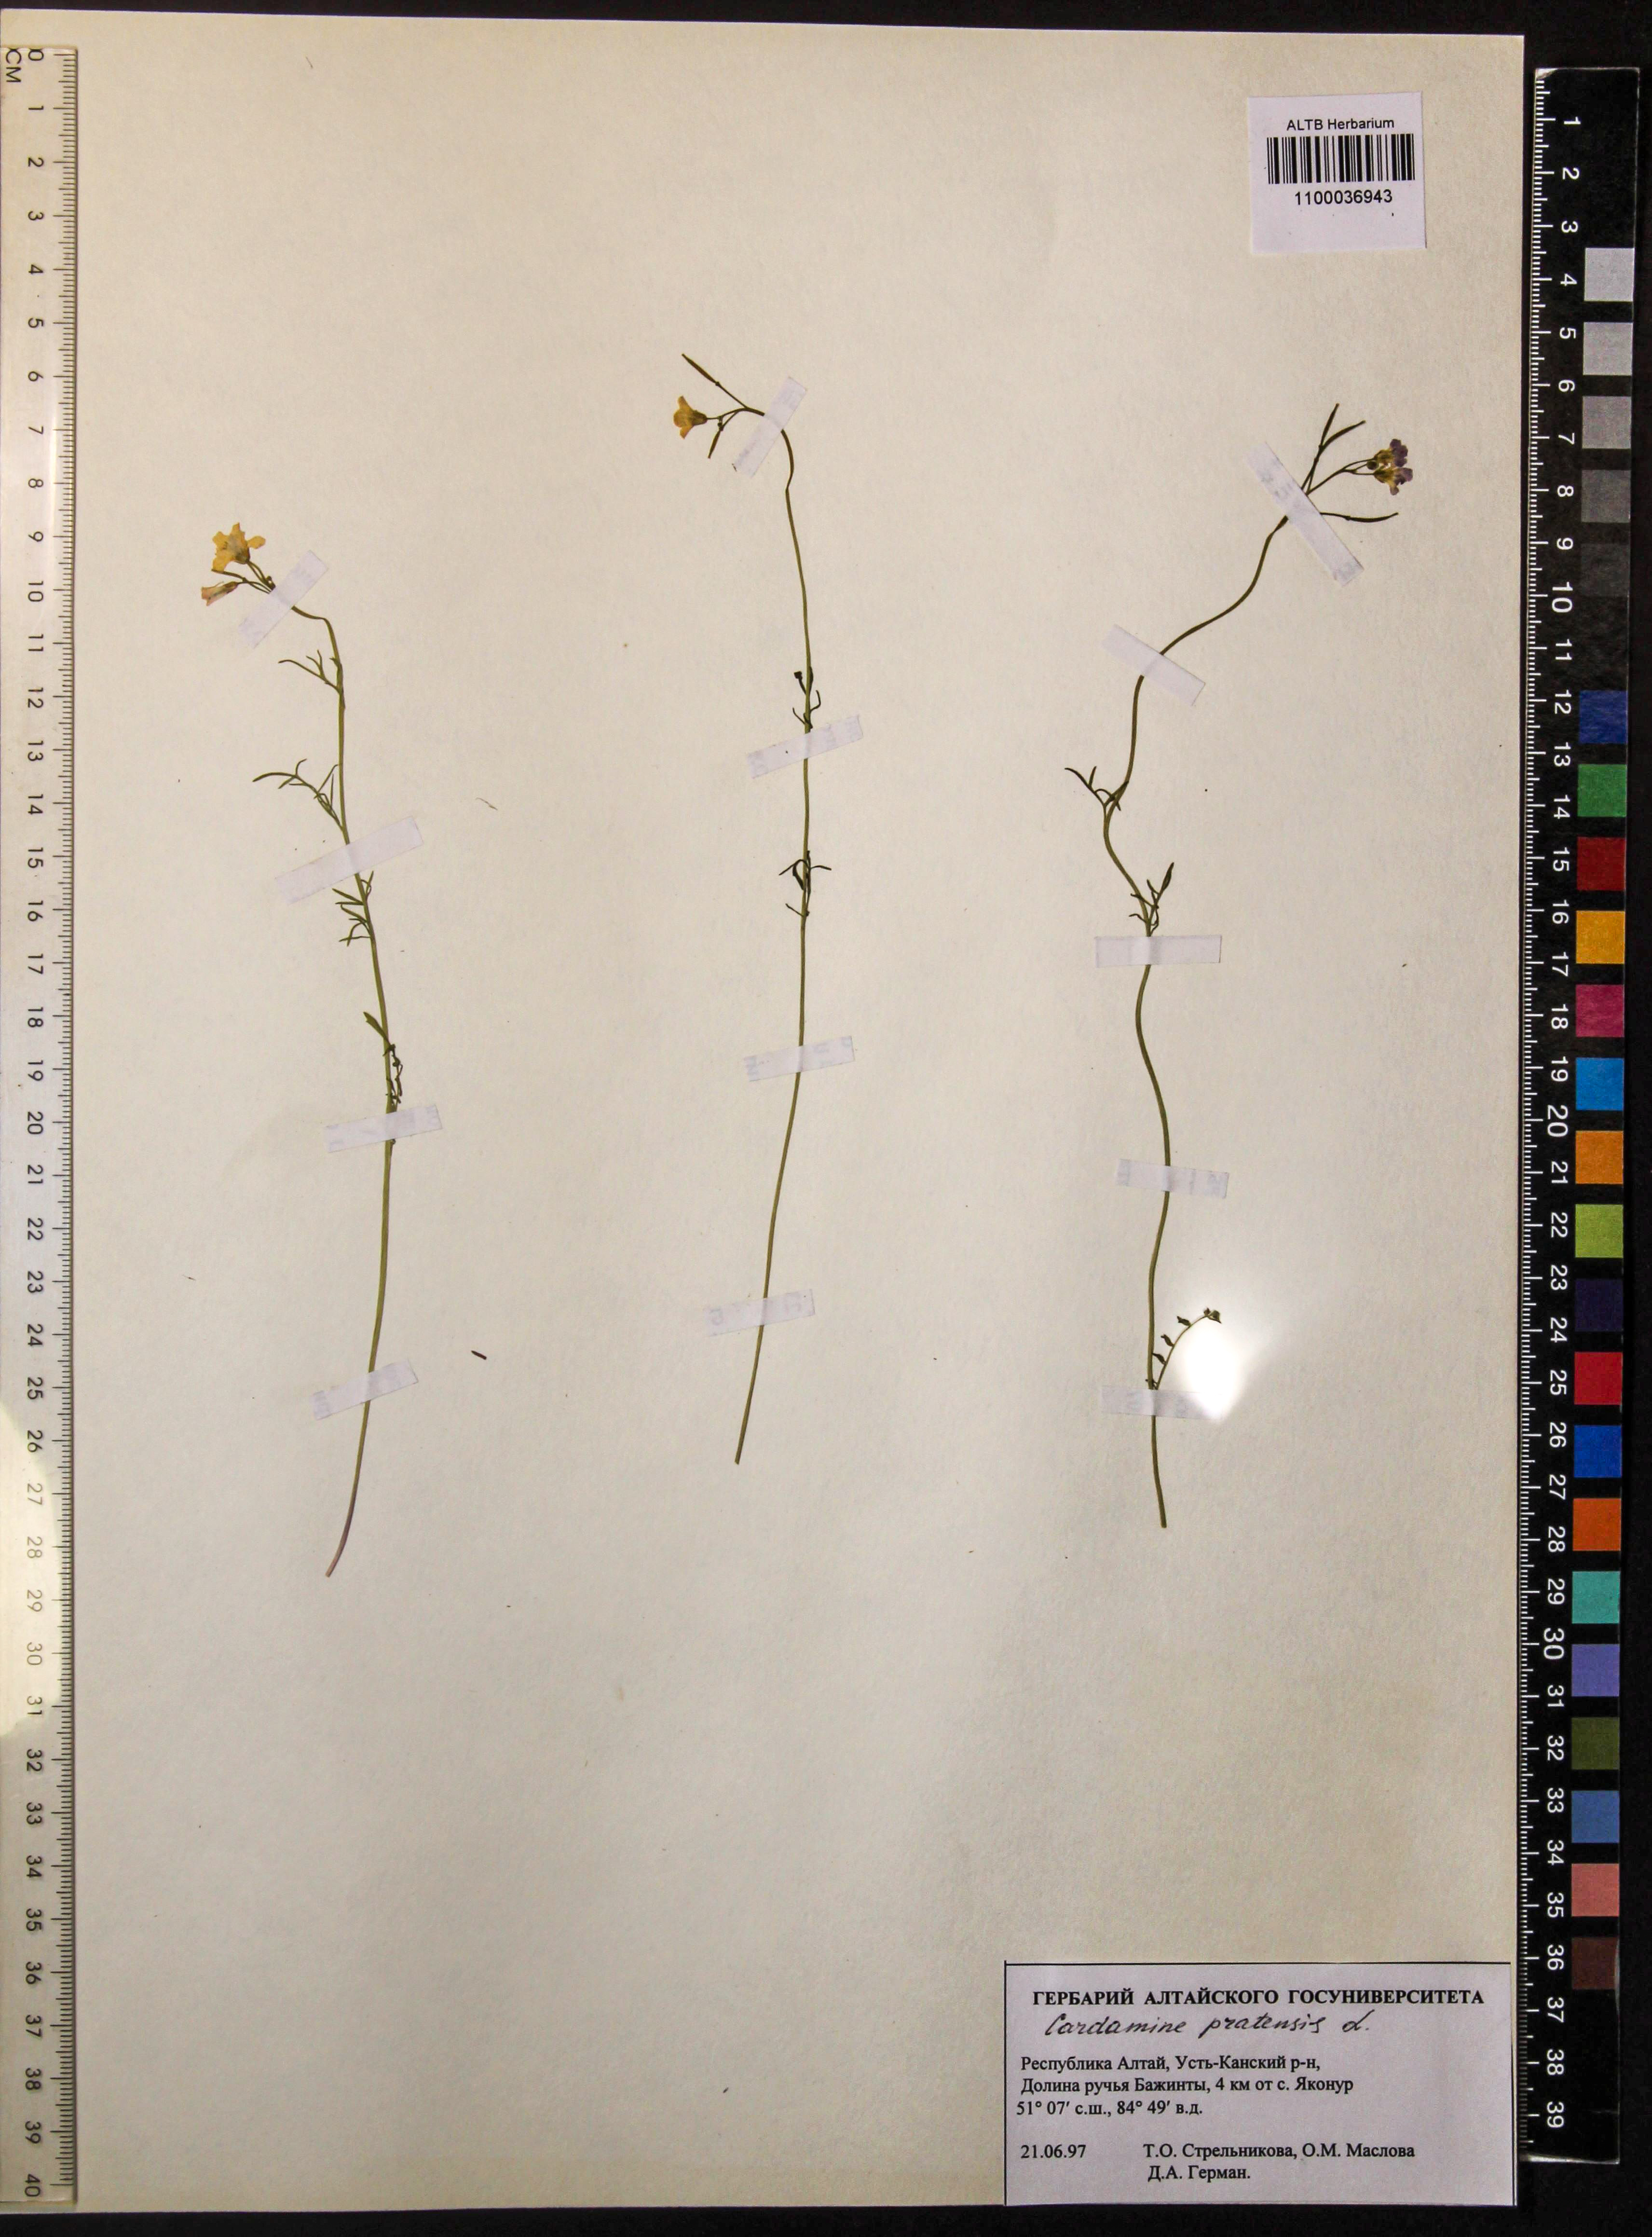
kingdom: Plantae
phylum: Tracheophyta
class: Magnoliopsida
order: Brassicales
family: Brassicaceae
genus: Cardamine
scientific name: Cardamine pratensis
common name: Cuckoo flower
